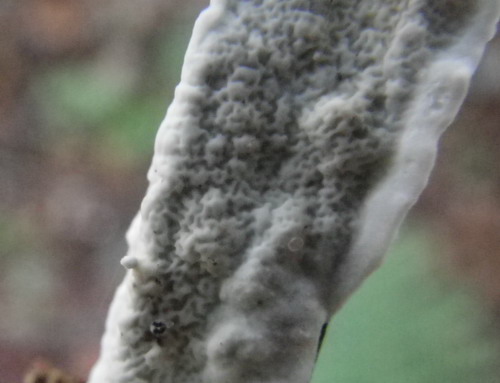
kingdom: Fungi
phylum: Basidiomycota
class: Agaricomycetes
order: Polyporales
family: Irpicaceae
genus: Byssomerulius
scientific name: Byssomerulius corium
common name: læder-åresvamp
